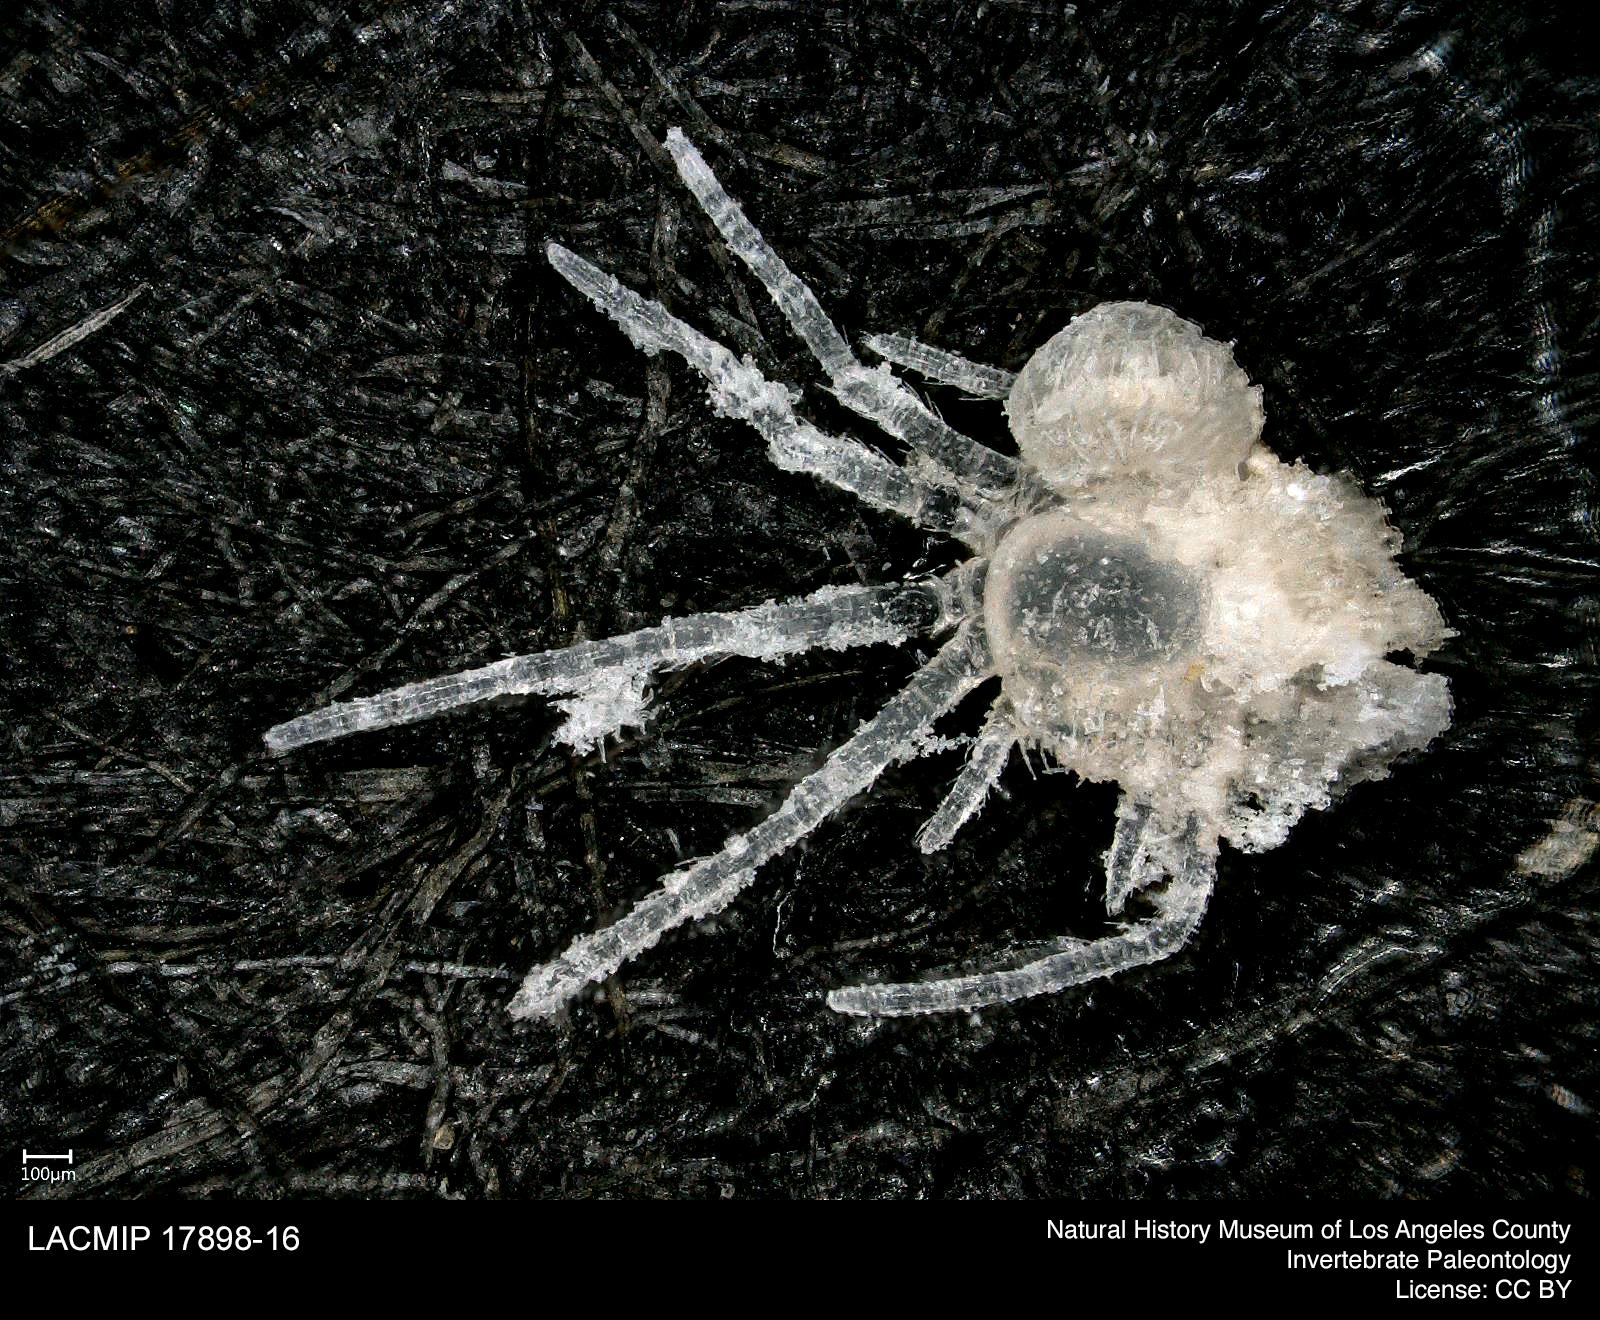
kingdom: Animalia
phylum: Arthropoda
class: Arachnida
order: Araneae
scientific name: Araneae
